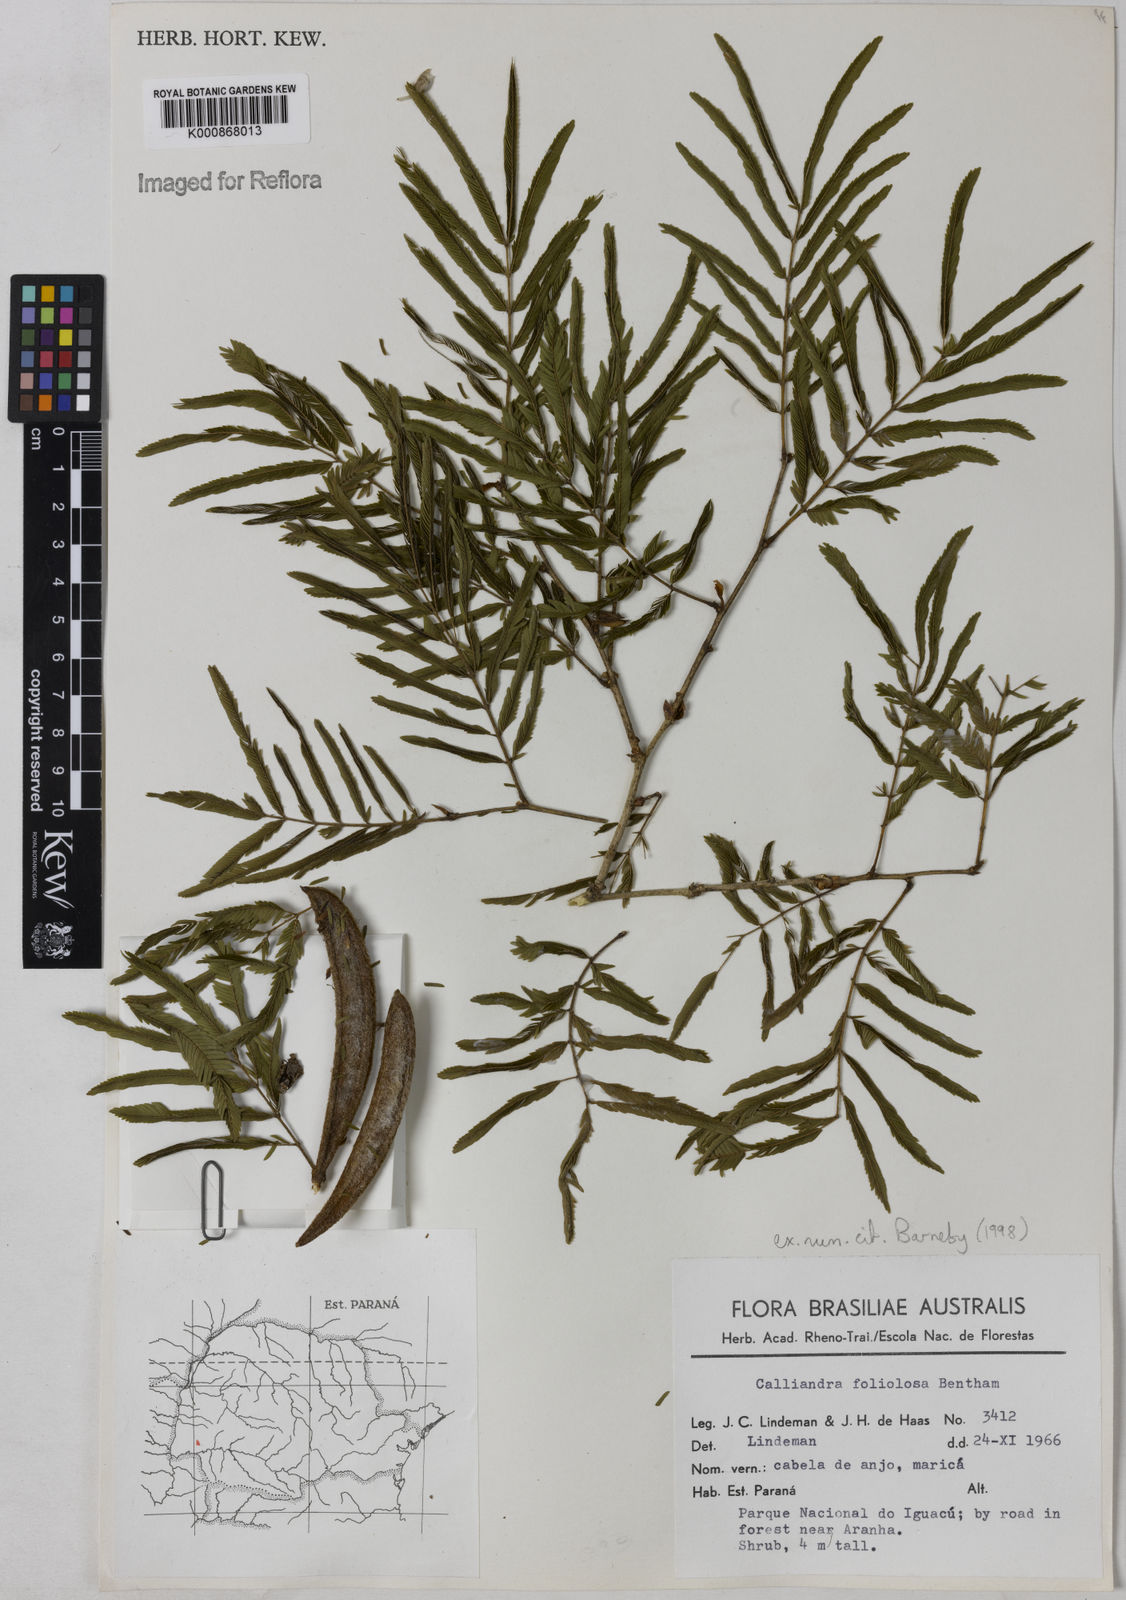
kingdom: Plantae
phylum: Tracheophyta
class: Magnoliopsida
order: Fabales
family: Fabaceae
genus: Calliandra
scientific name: Calliandra foliolosa
